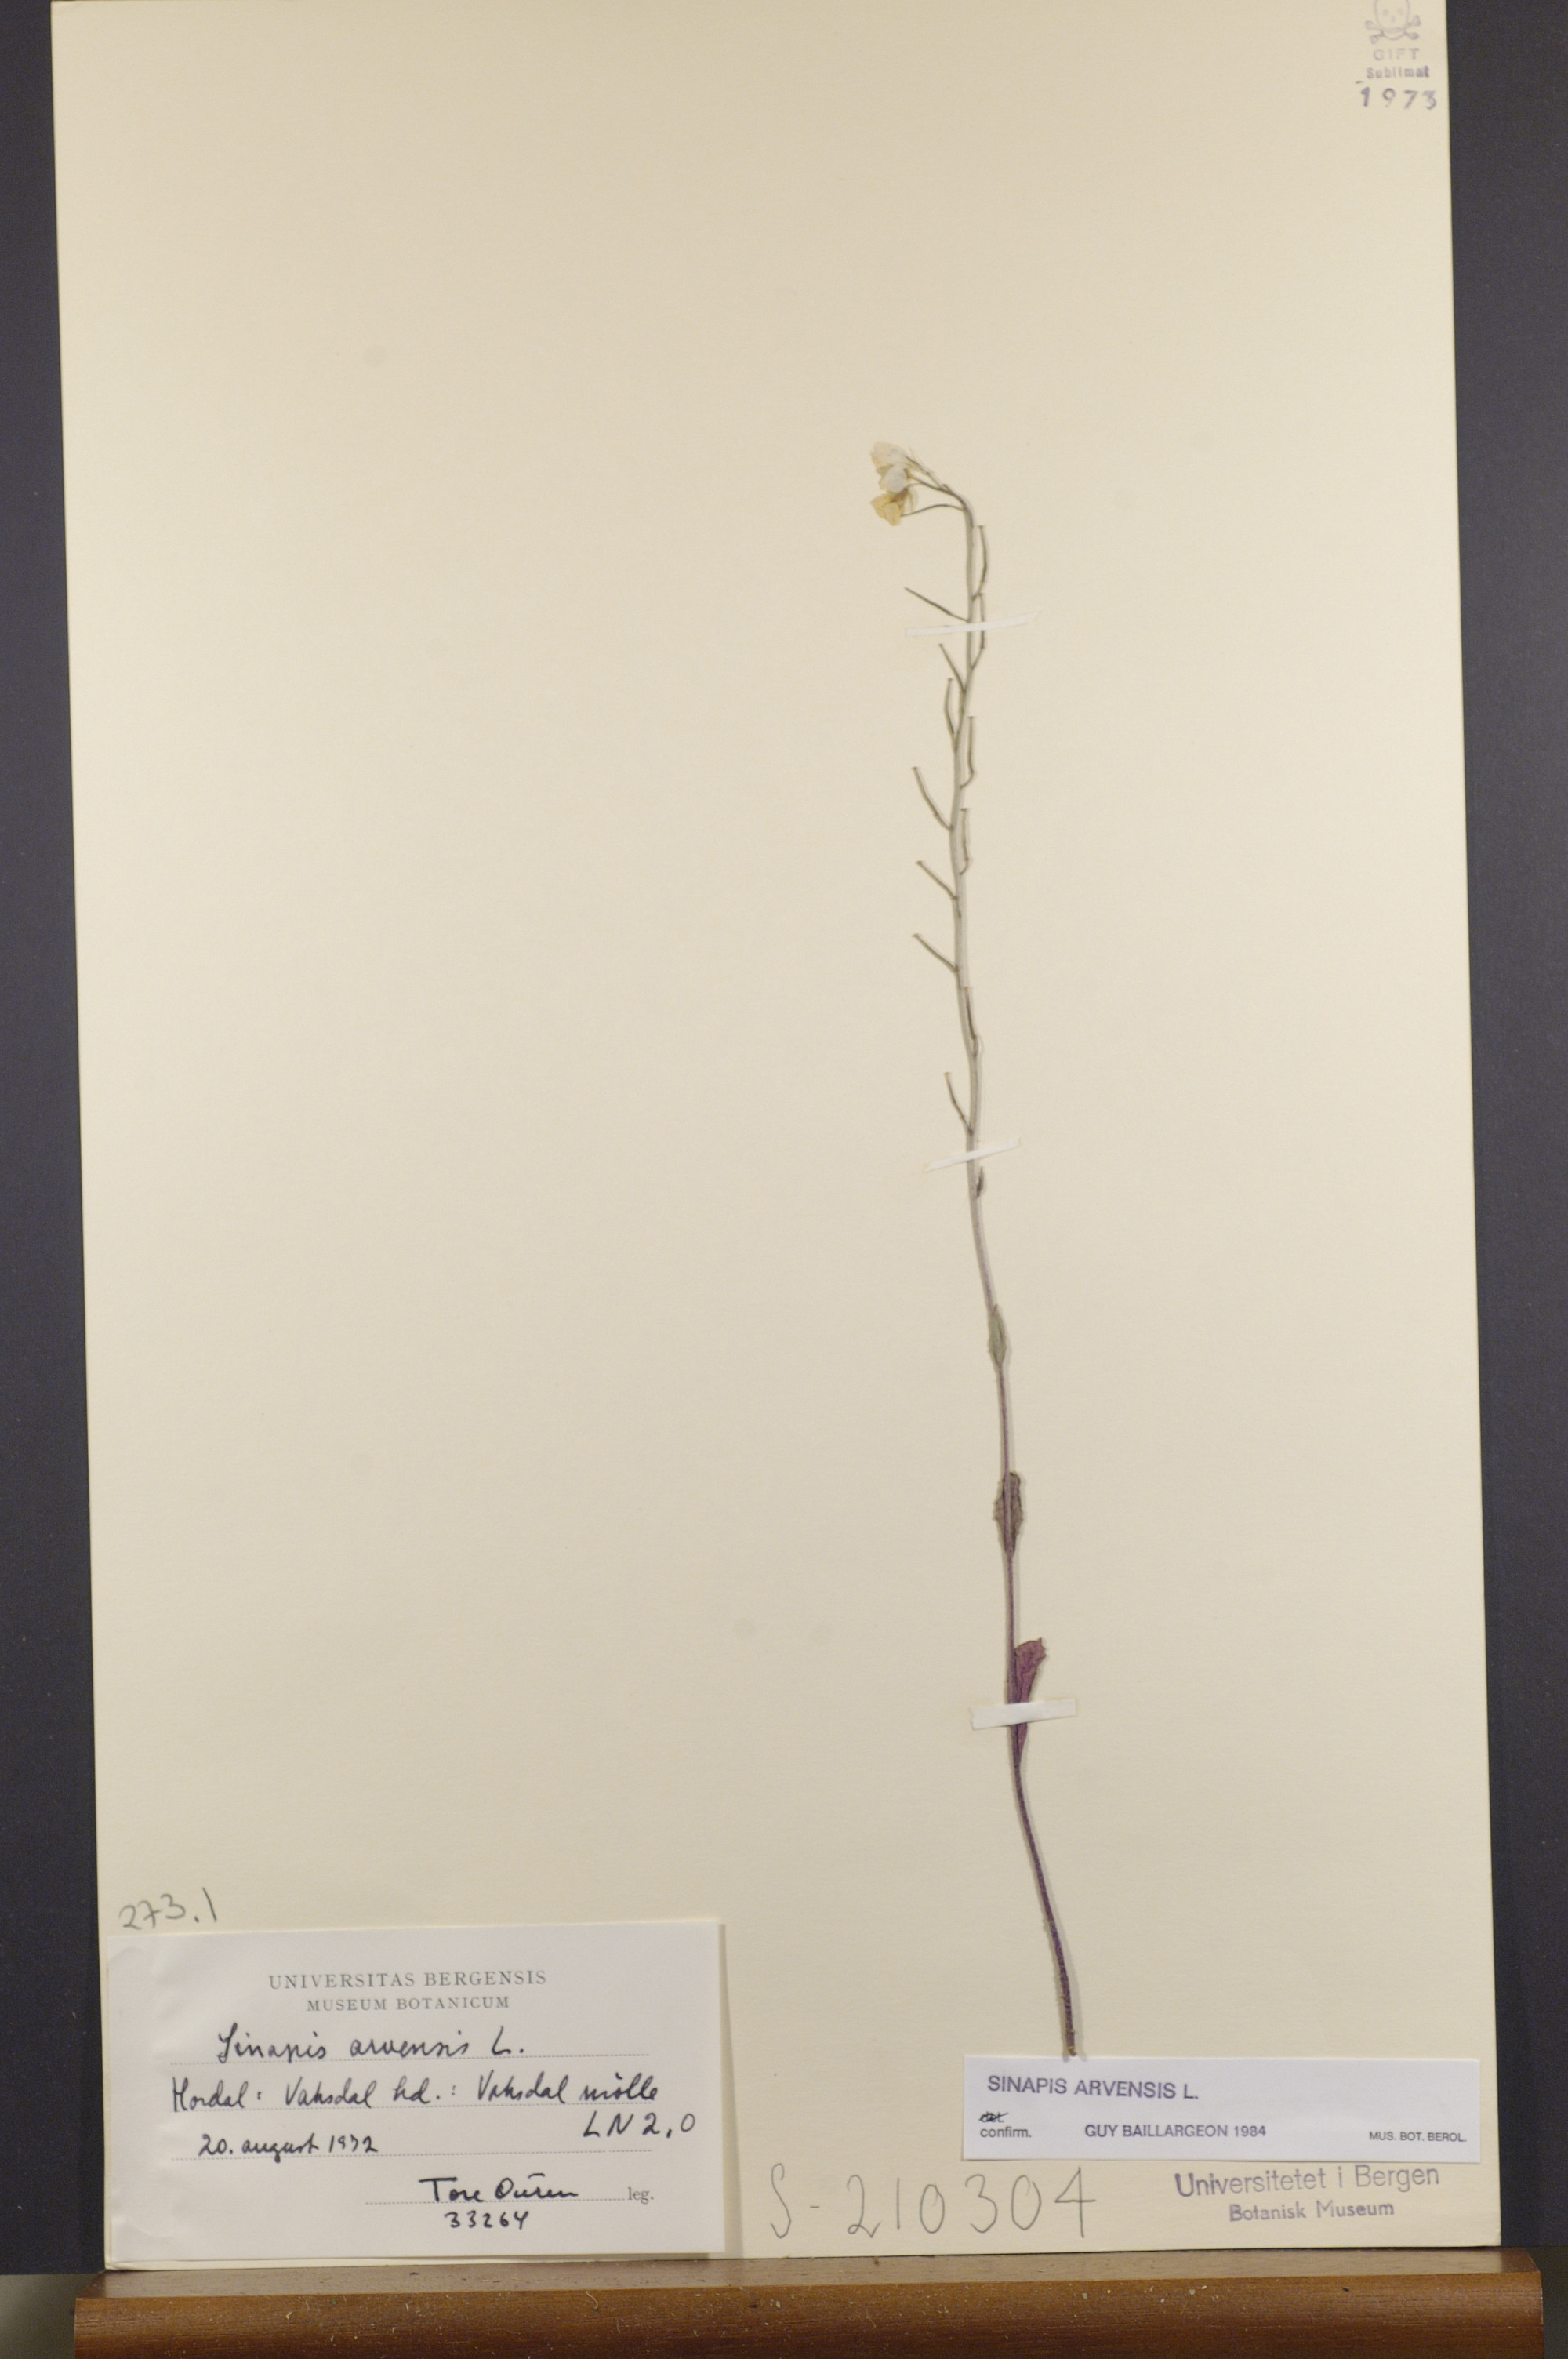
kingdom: Plantae
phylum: Tracheophyta
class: Magnoliopsida
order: Brassicales
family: Brassicaceae
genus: Sinapis
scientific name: Sinapis arvensis
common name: Charlock
